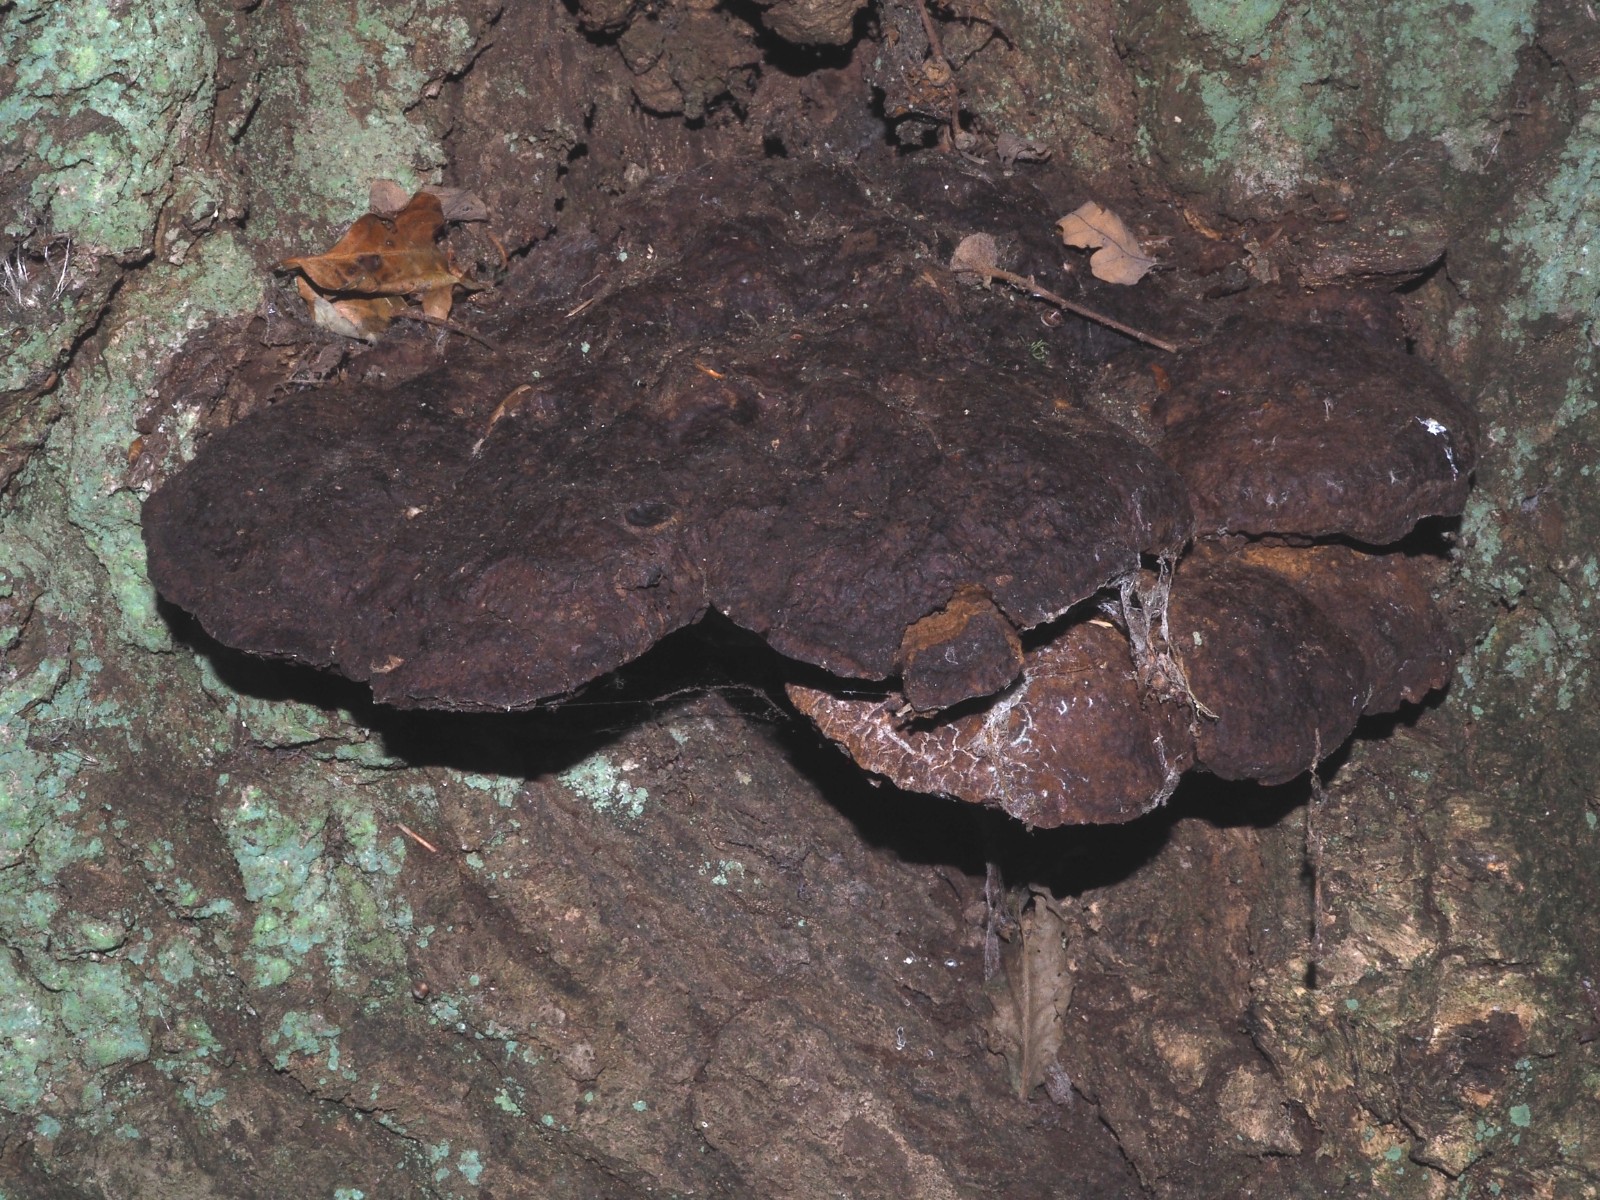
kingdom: Fungi
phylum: Basidiomycota
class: Agaricomycetes
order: Hymenochaetales
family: Hymenochaetaceae
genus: Pseudoinonotus
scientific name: Pseudoinonotus dryadeus
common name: ege-spejlporesvamp
